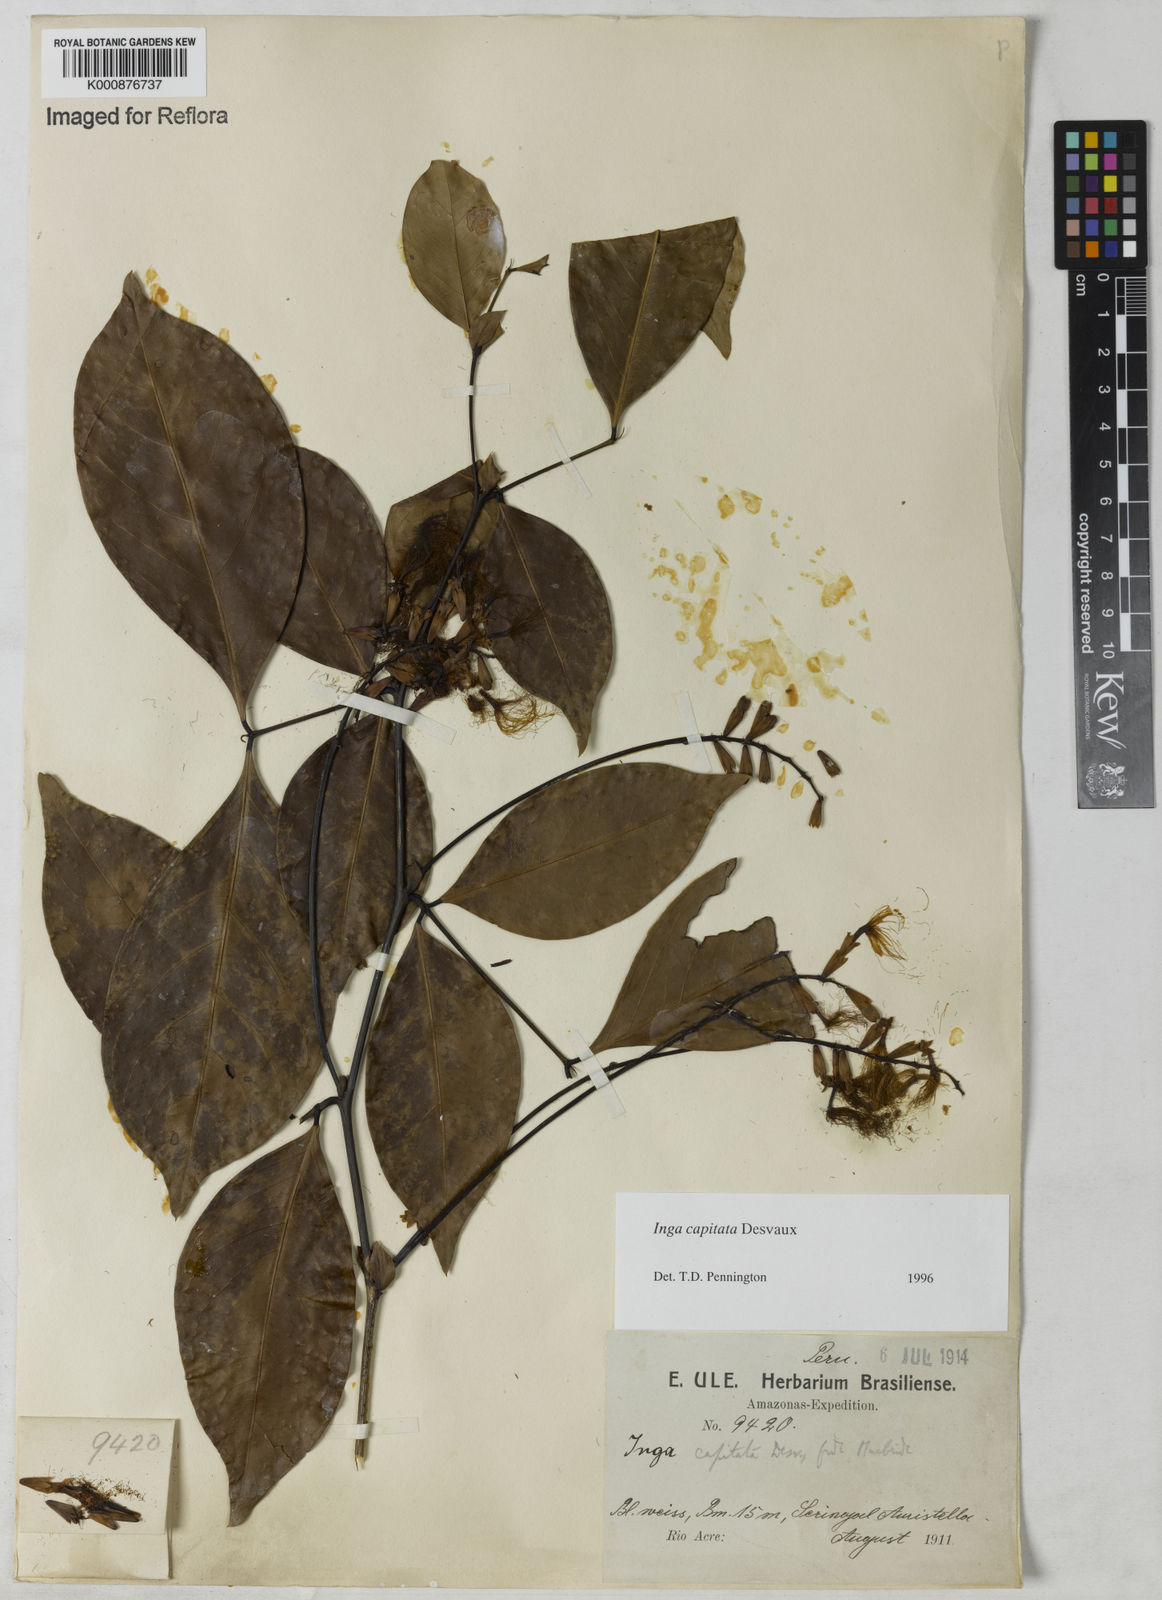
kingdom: Plantae
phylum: Tracheophyta
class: Magnoliopsida
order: Fabales
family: Fabaceae
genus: Inga
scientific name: Inga capitata
